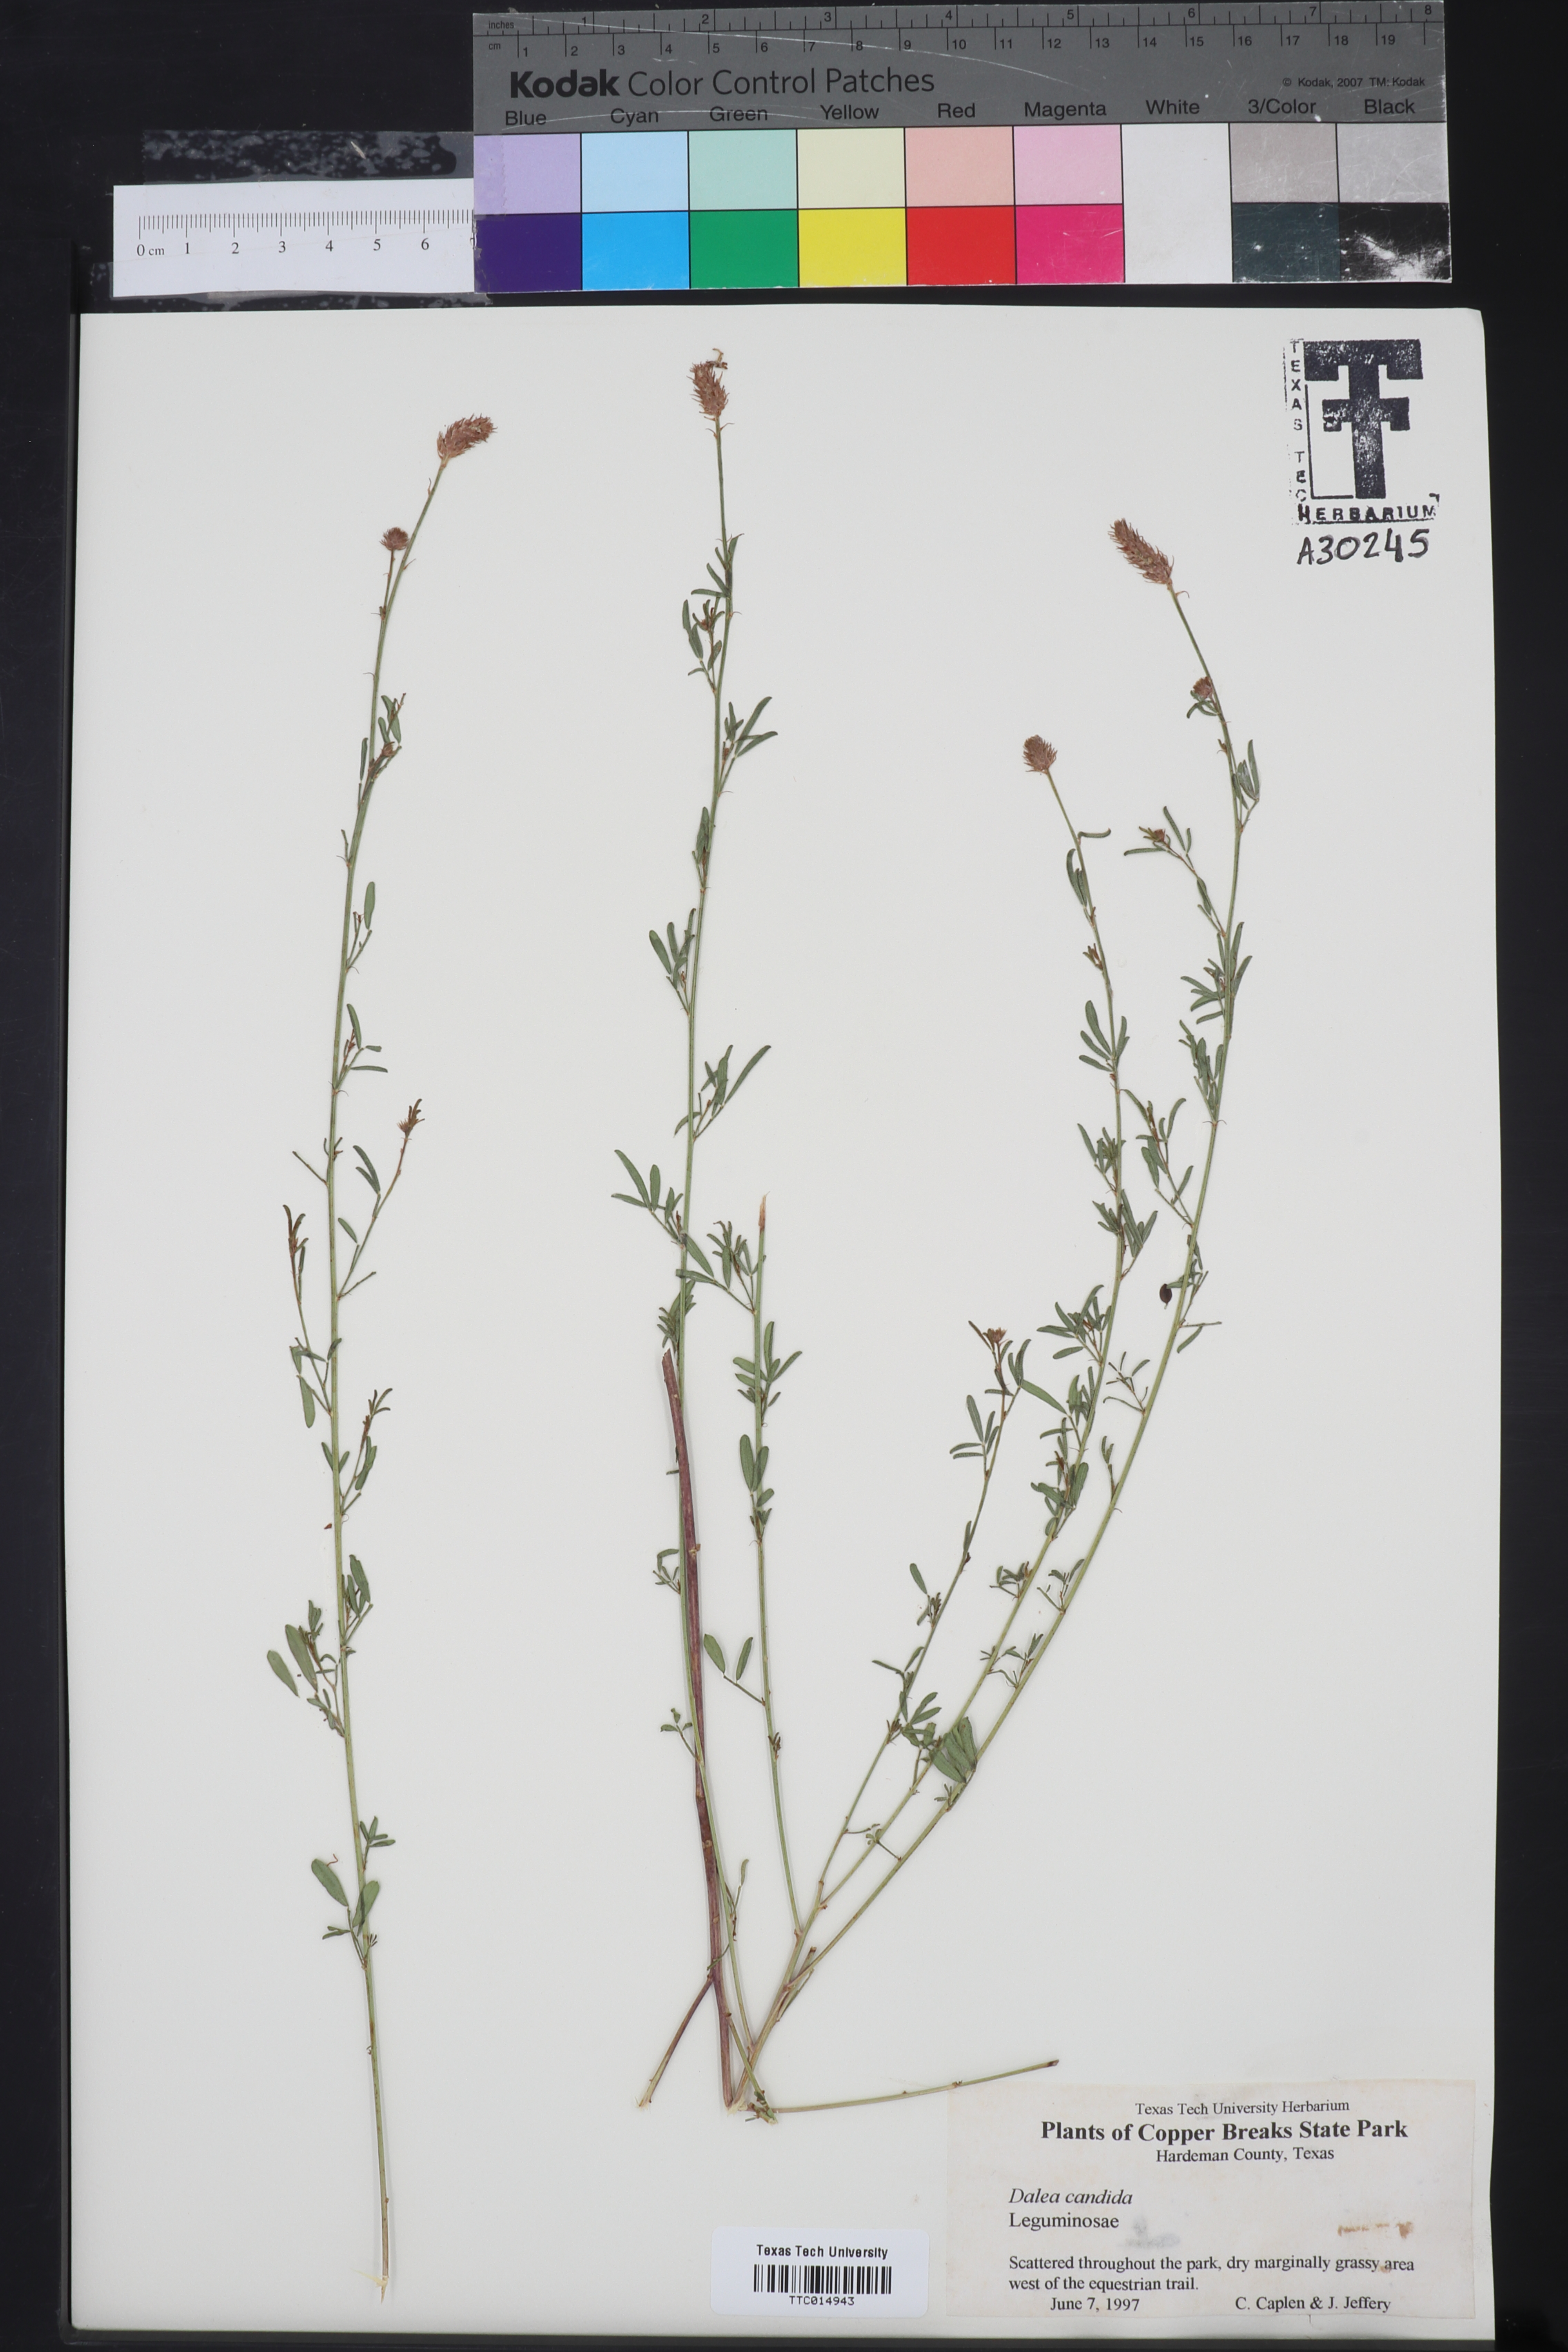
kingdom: Plantae
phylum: Tracheophyta
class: Magnoliopsida
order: Fabales
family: Fabaceae
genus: Dalea
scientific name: Dalea candida
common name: White prairie-clover
